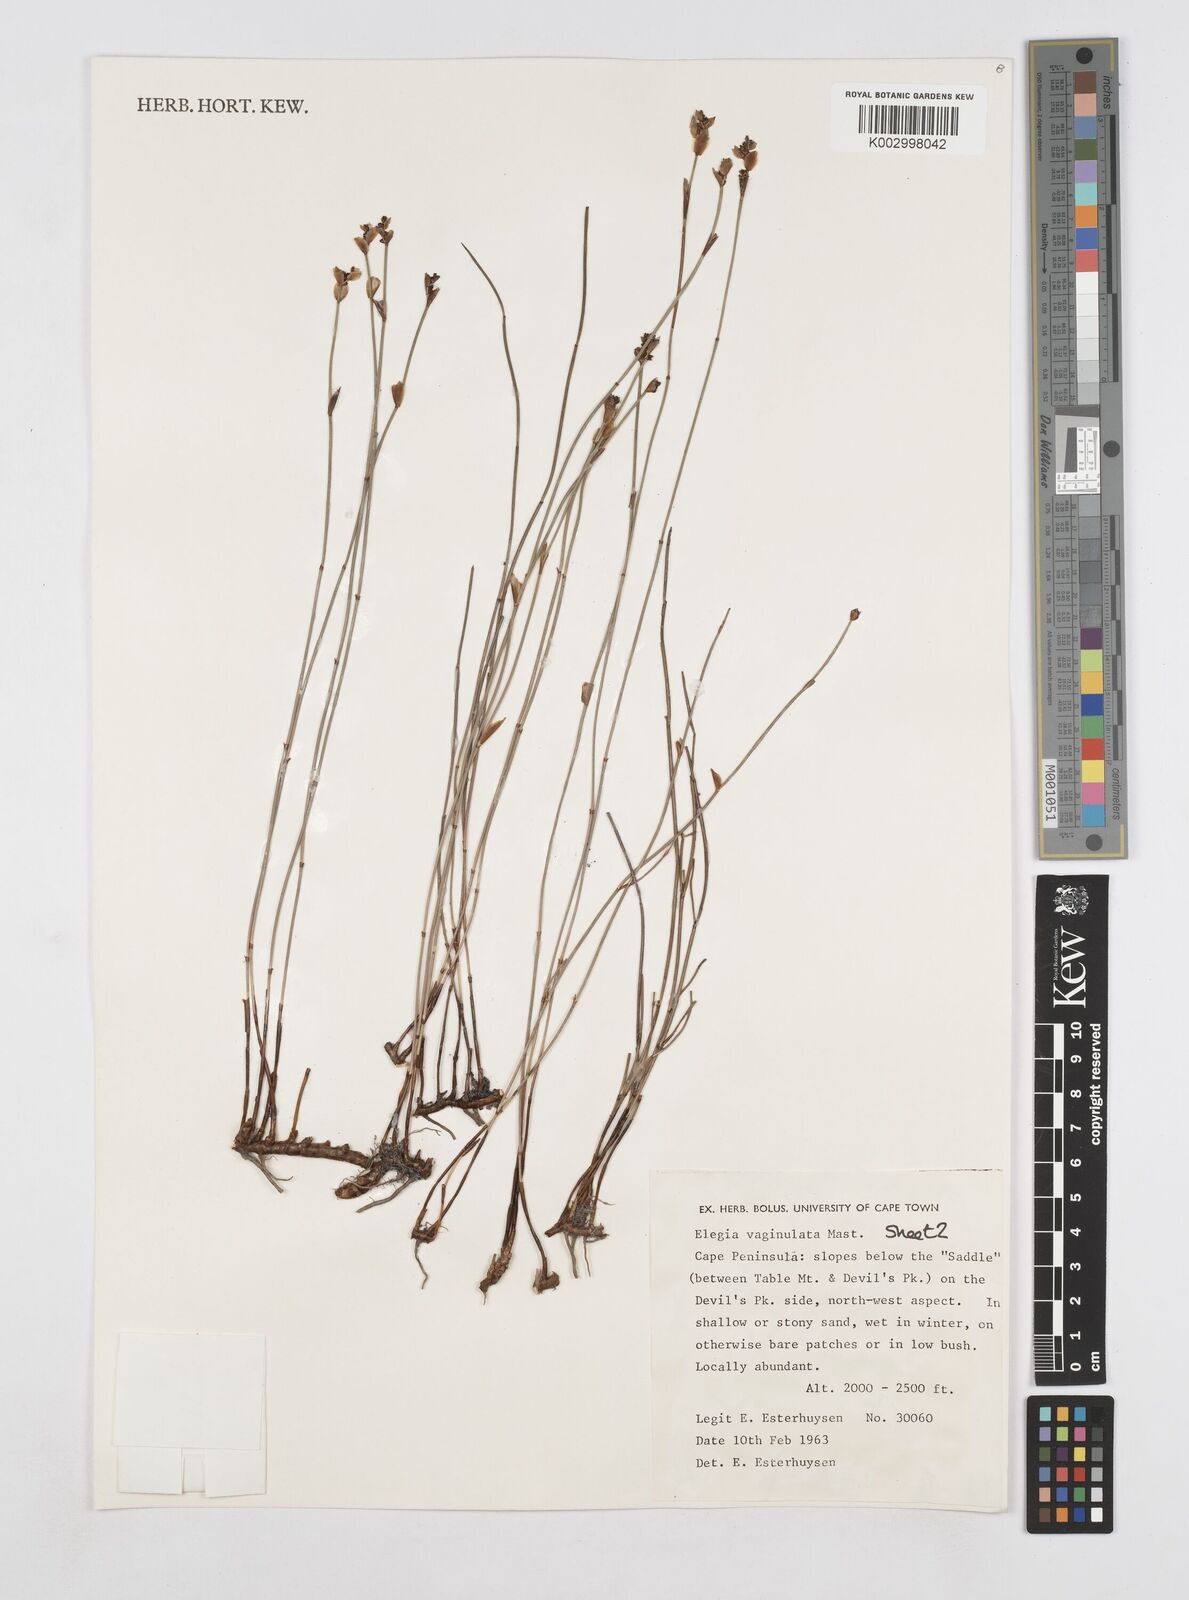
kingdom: Plantae
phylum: Tracheophyta
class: Liliopsida
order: Poales
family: Restionaceae
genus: Elegia
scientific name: Elegia vaginulata
